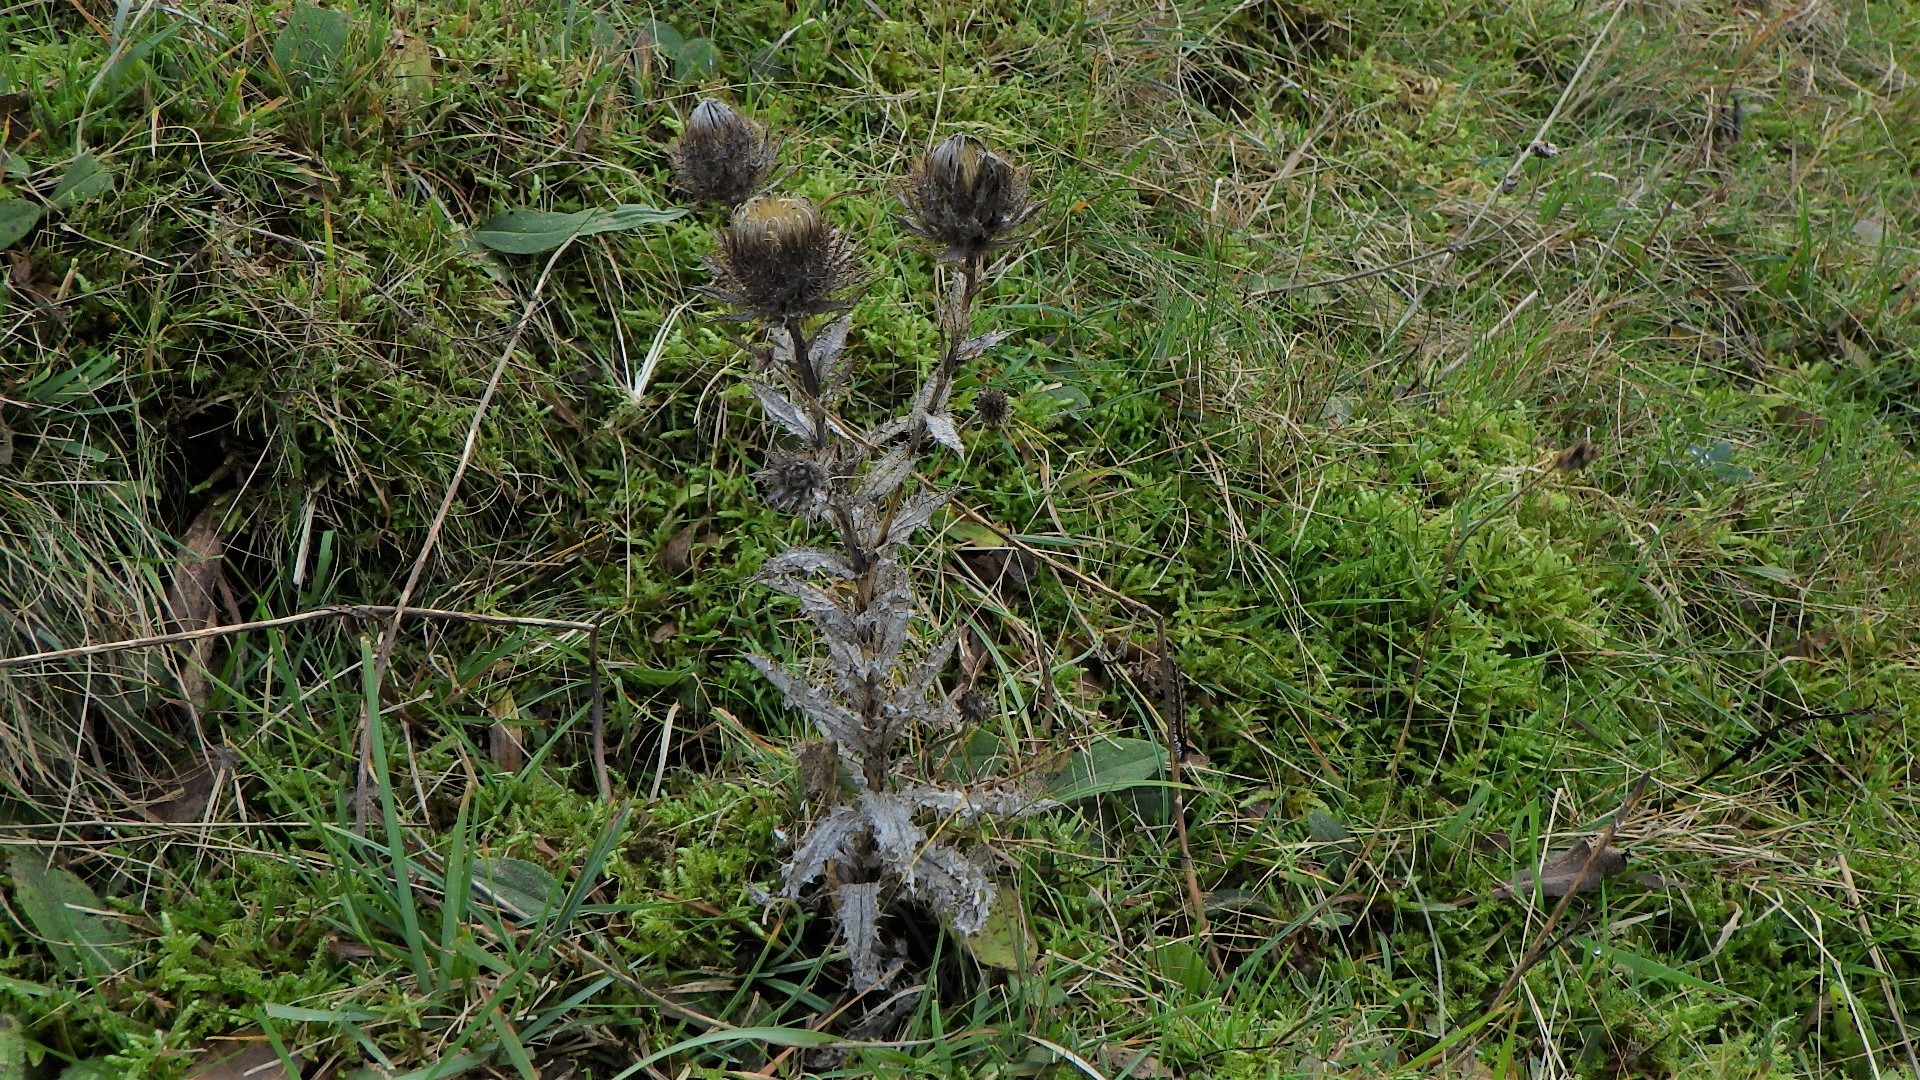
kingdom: Plantae
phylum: Tracheophyta
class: Magnoliopsida
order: Asterales
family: Asteraceae
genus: Carlina
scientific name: Carlina vulgaris
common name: Bakketidsel
